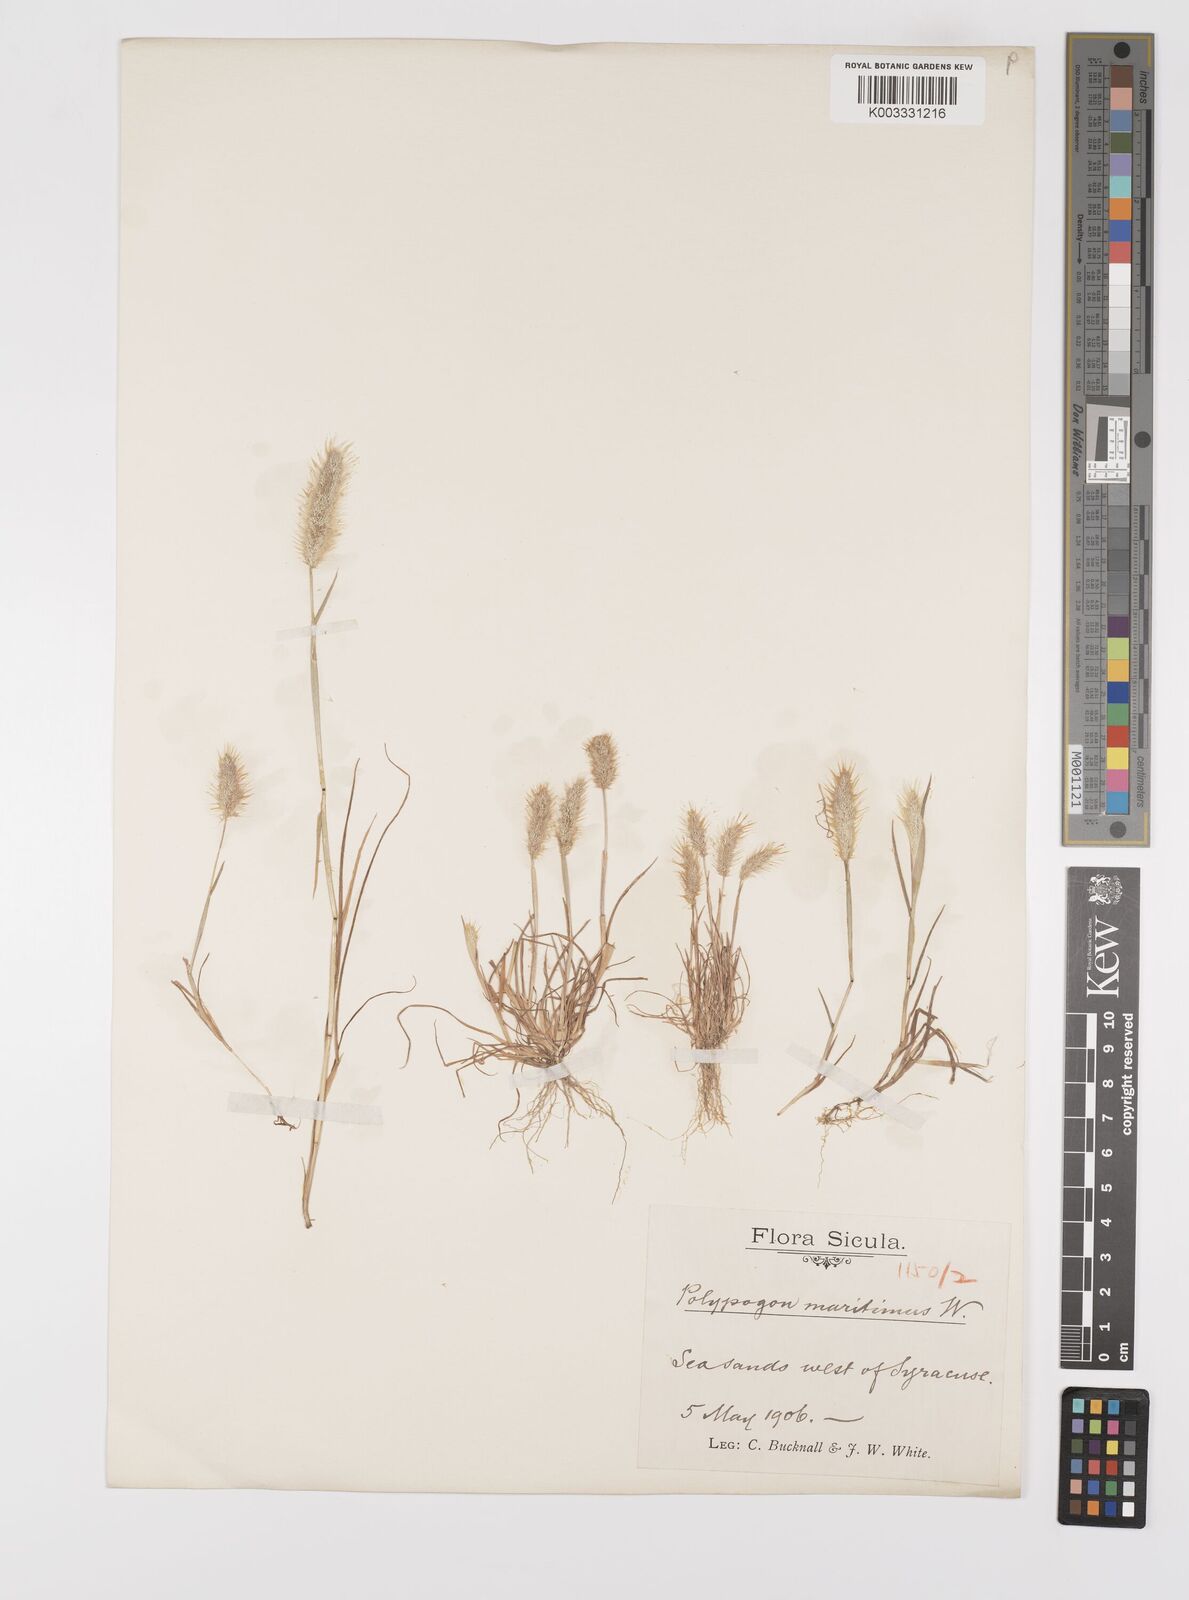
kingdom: Plantae
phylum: Tracheophyta
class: Liliopsida
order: Poales
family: Poaceae
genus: Polypogon
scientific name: Polypogon maritimus
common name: Mediterranean rabbitsfoot grass
